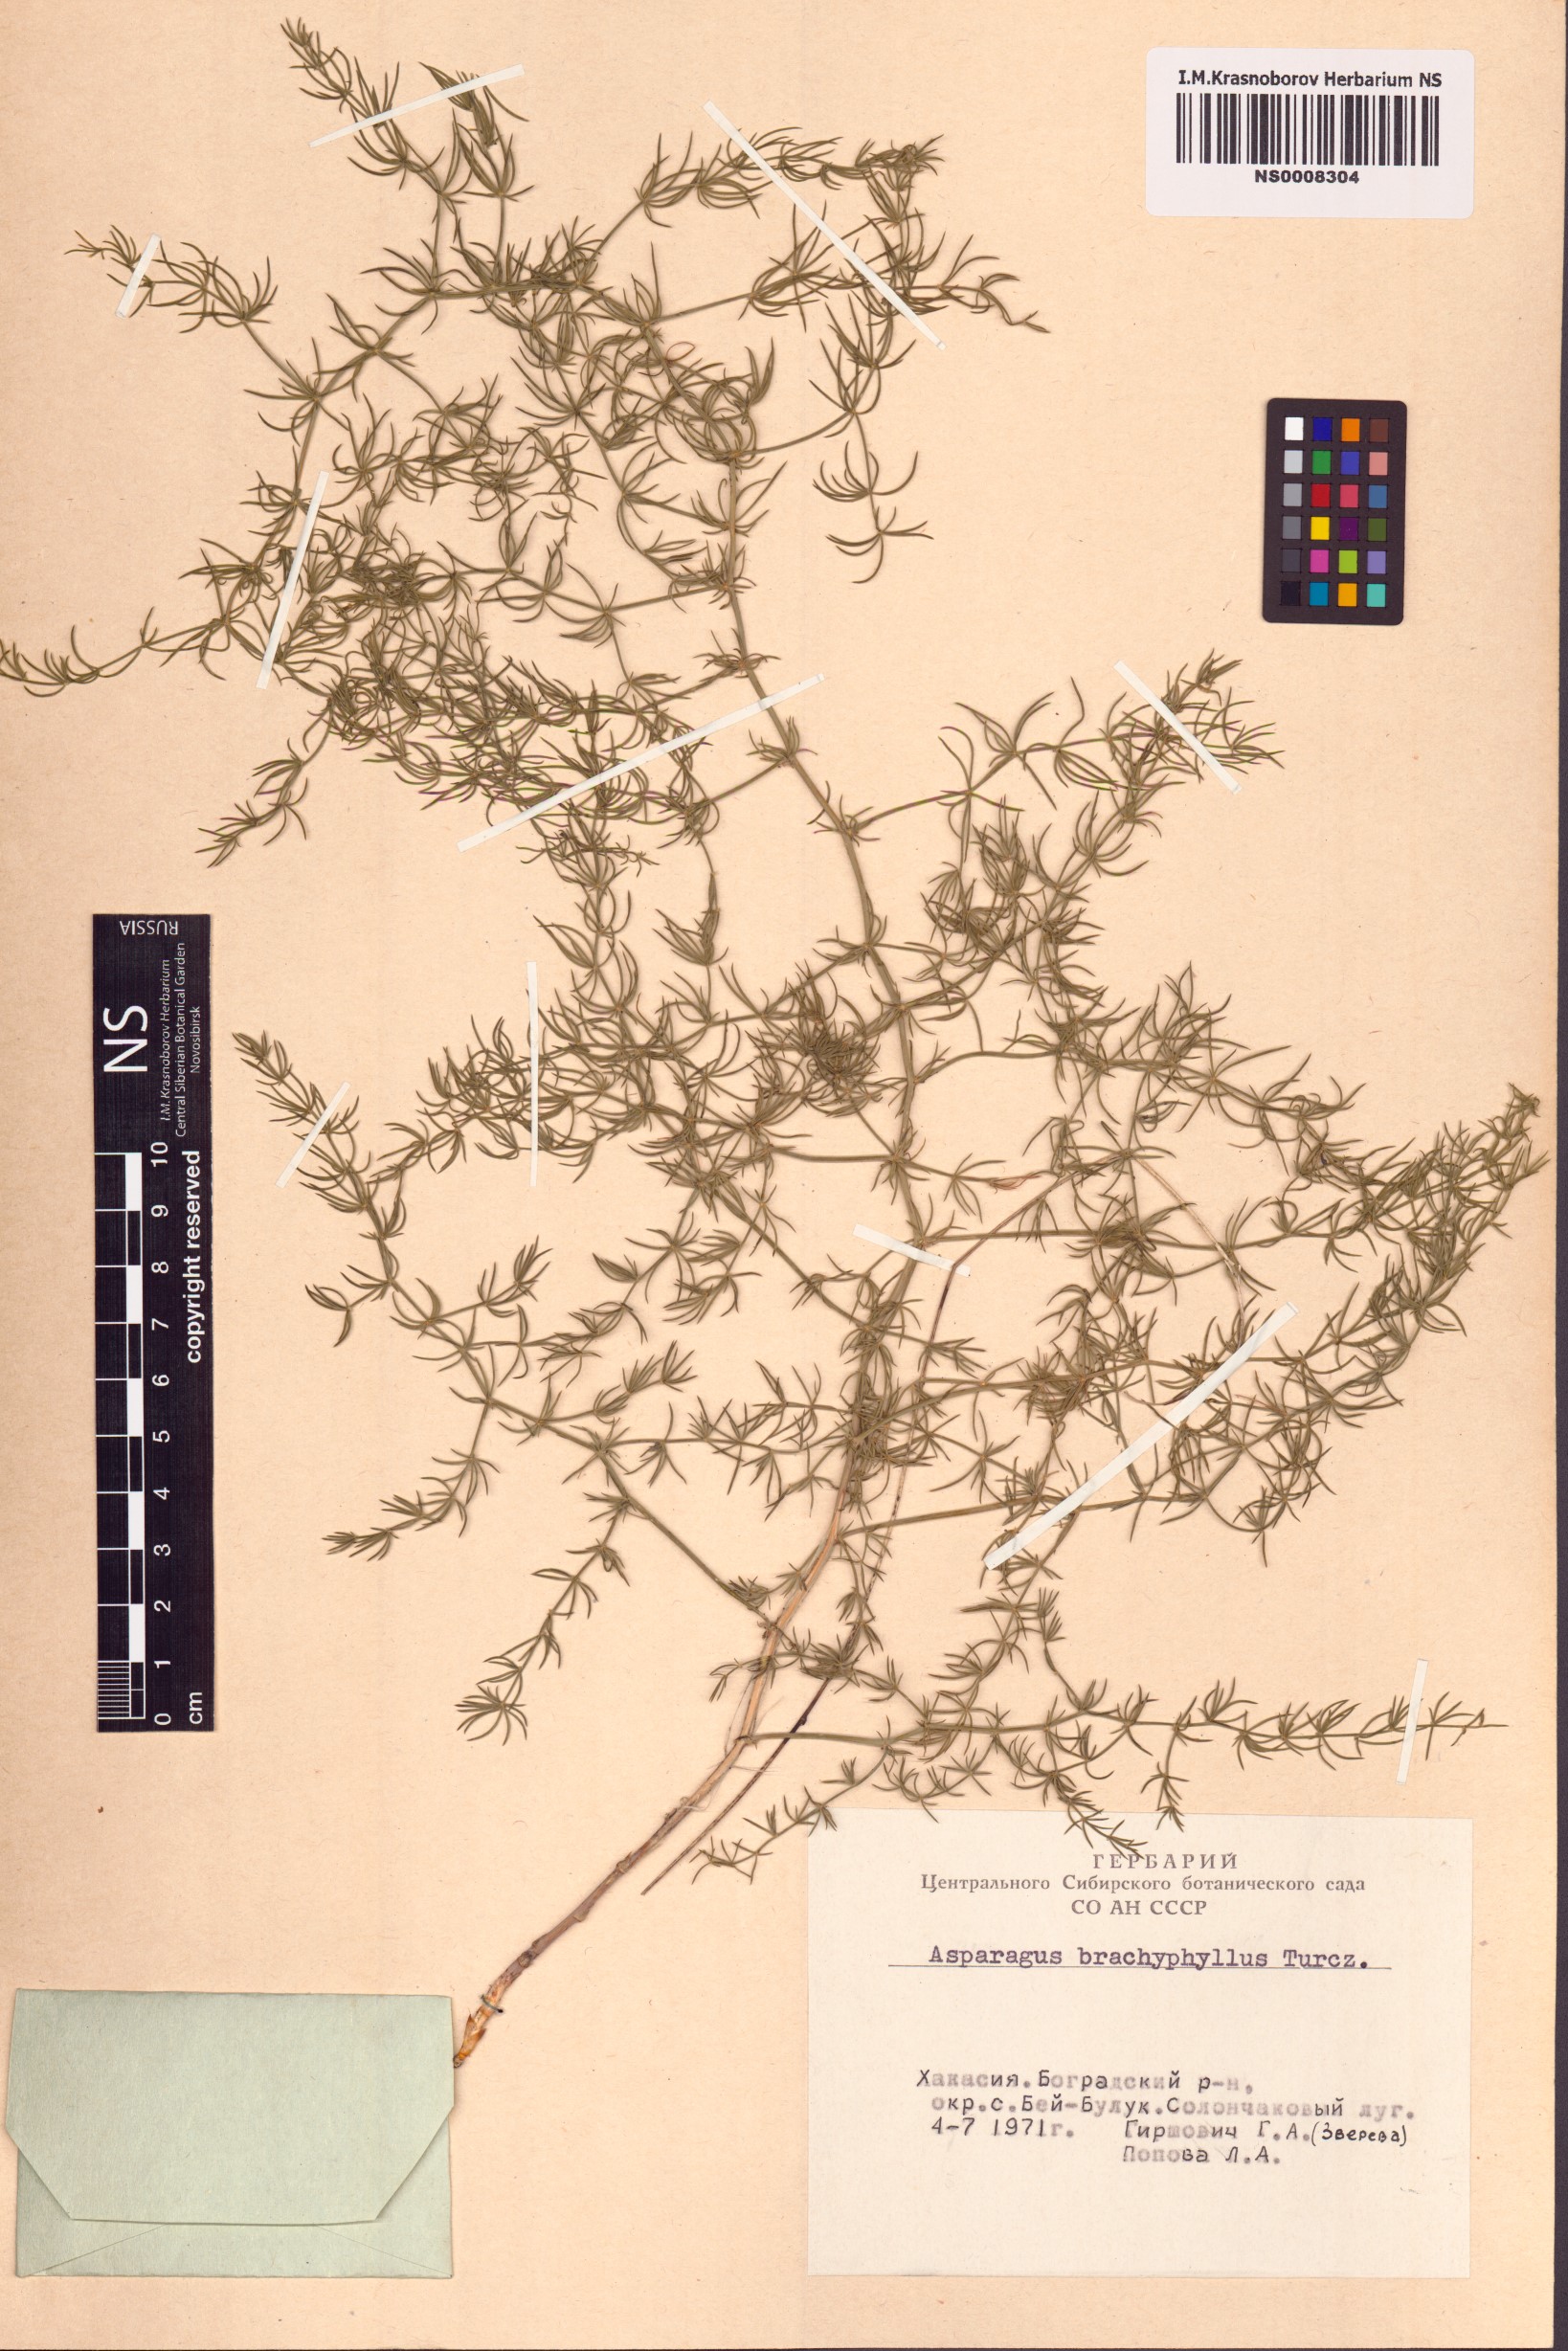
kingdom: Plantae
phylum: Tracheophyta
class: Liliopsida
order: Asparagales
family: Asparagaceae
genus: Asparagus
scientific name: Asparagus brachyphyllus
